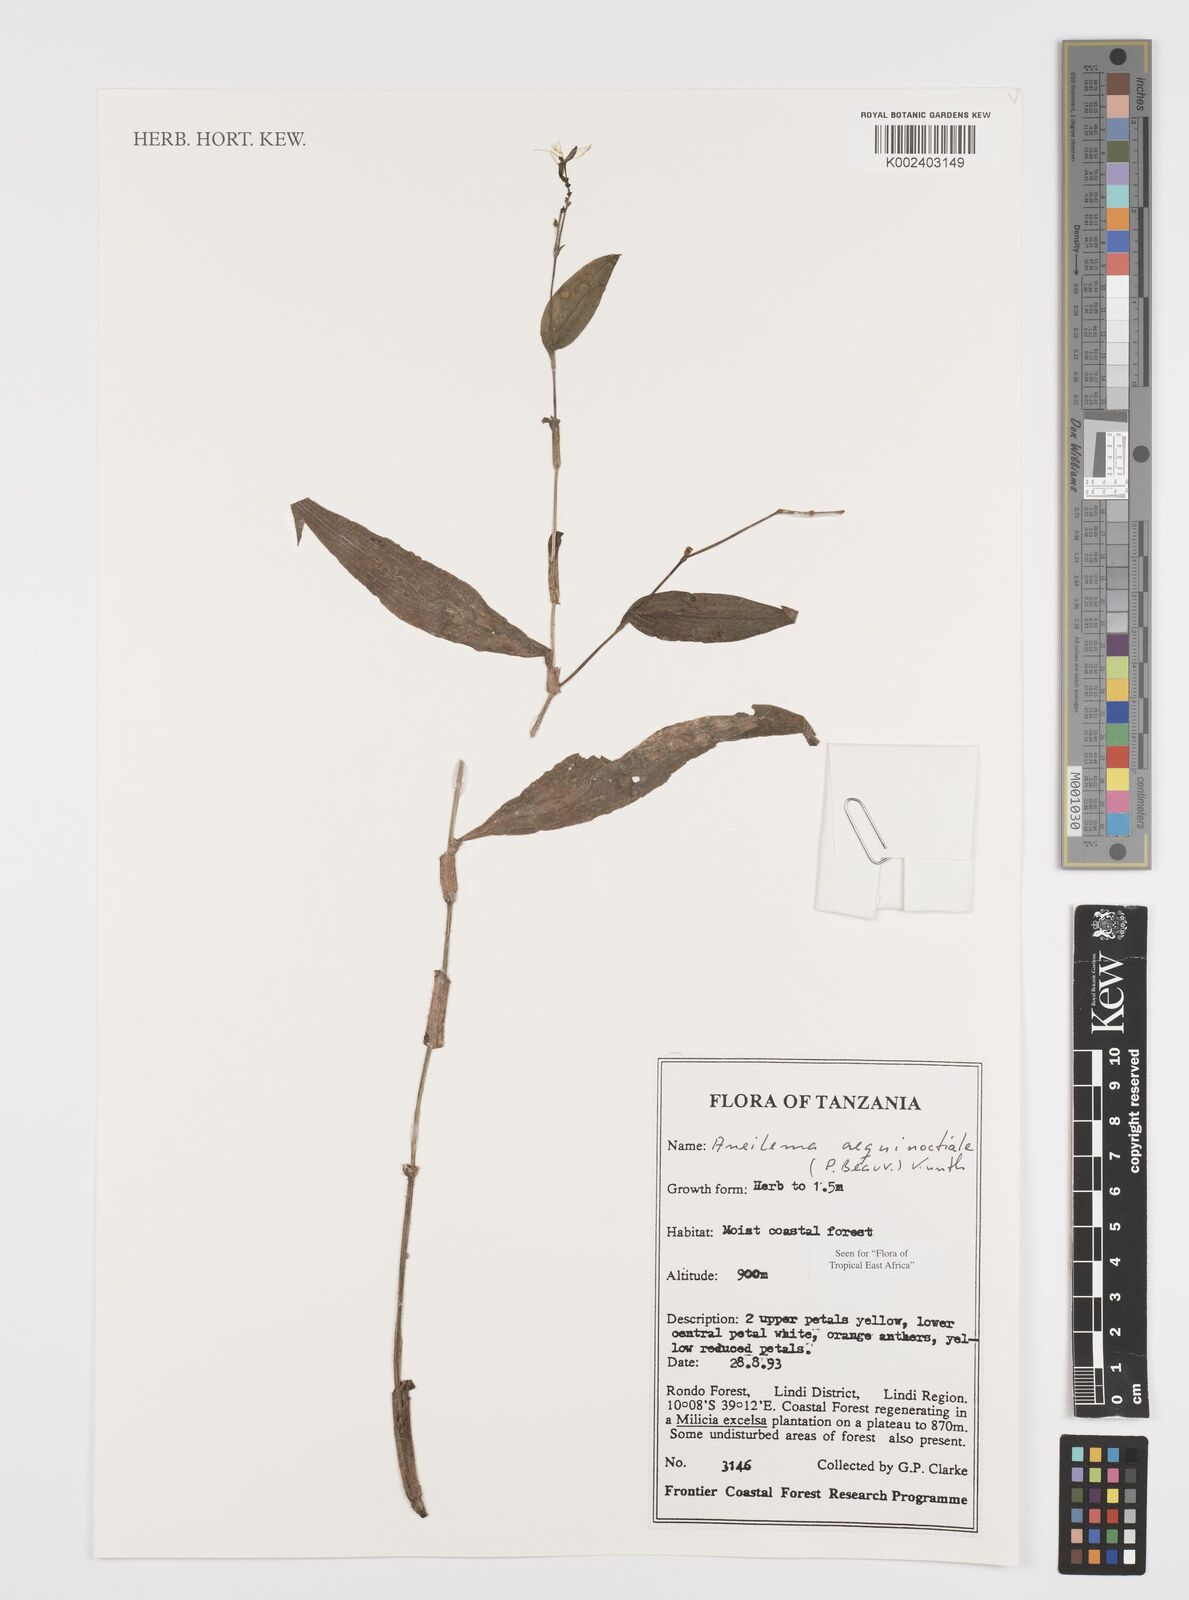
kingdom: Plantae
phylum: Tracheophyta
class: Liliopsida
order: Commelinales
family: Commelinaceae
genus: Aneilema
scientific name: Aneilema aequinoctiale
